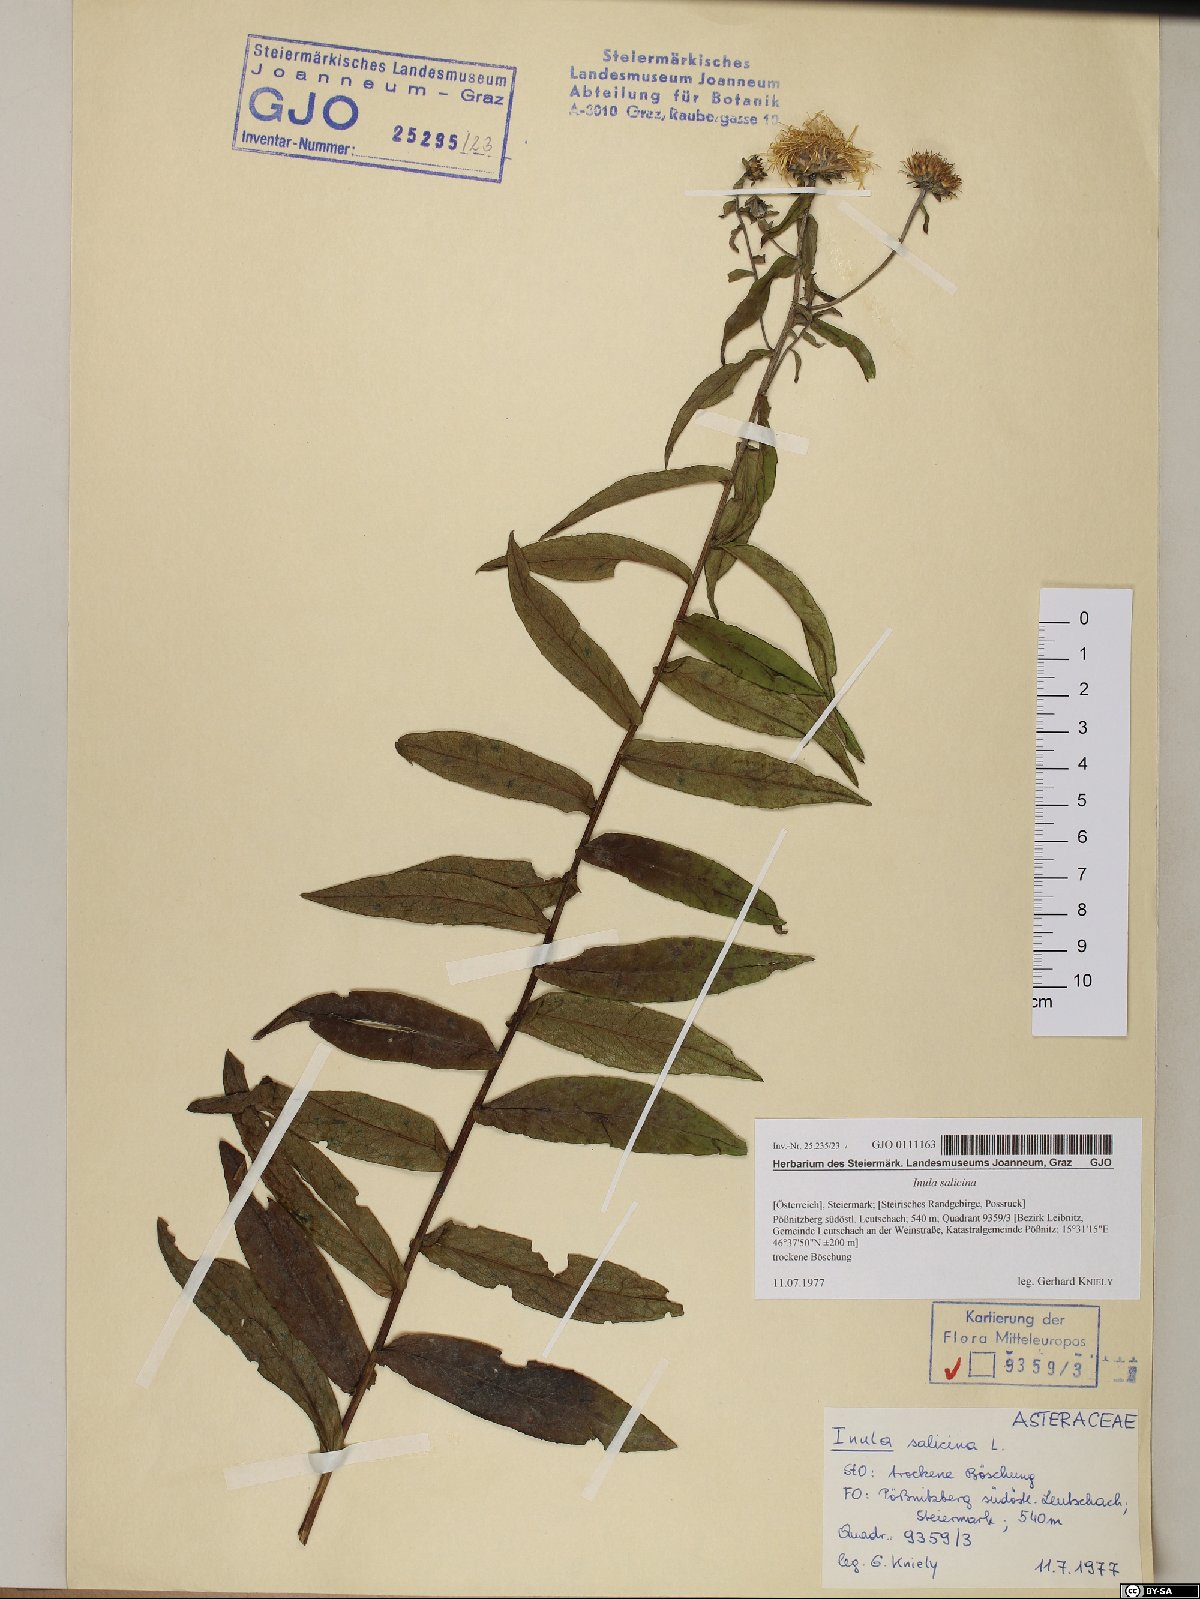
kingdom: Plantae
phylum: Tracheophyta
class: Magnoliopsida
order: Asterales
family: Asteraceae
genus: Pentanema
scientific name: Pentanema salicinum
